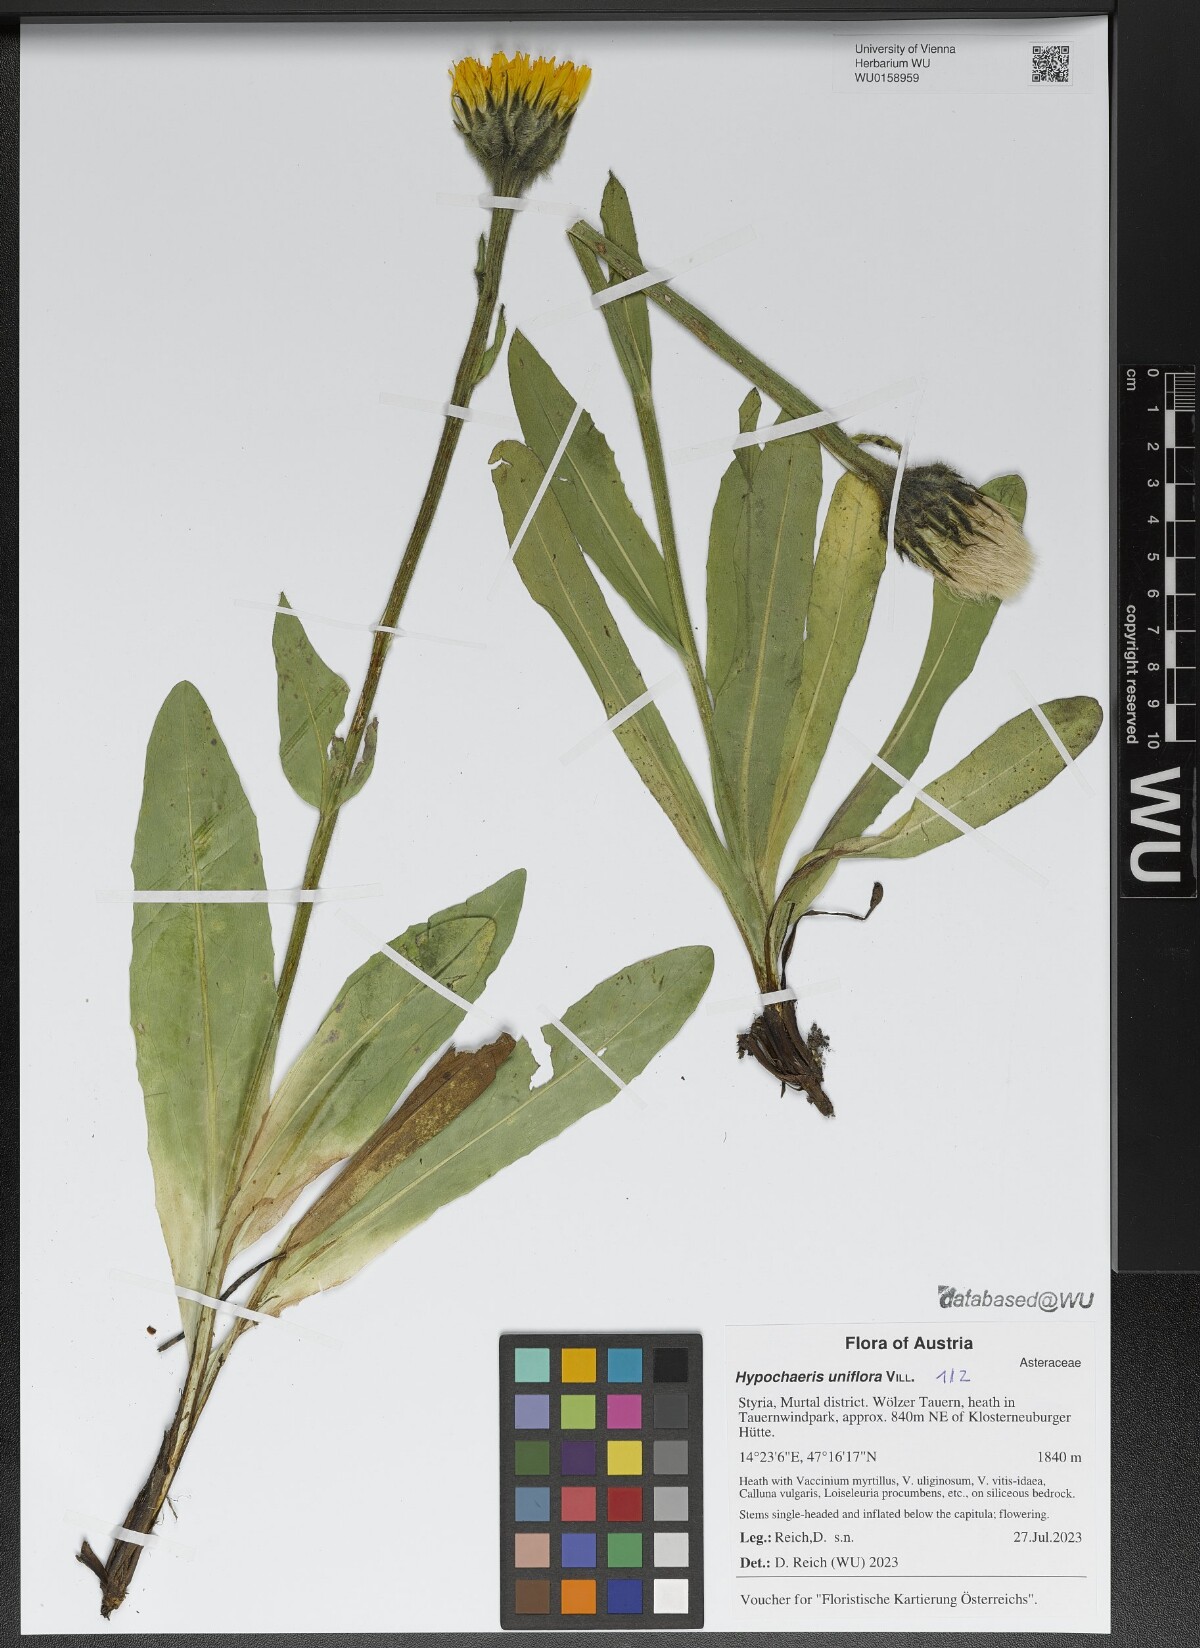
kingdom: Plantae
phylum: Tracheophyta
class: Magnoliopsida
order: Asterales
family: Asteraceae
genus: Trommsdorffia
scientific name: Trommsdorffia uniflora
